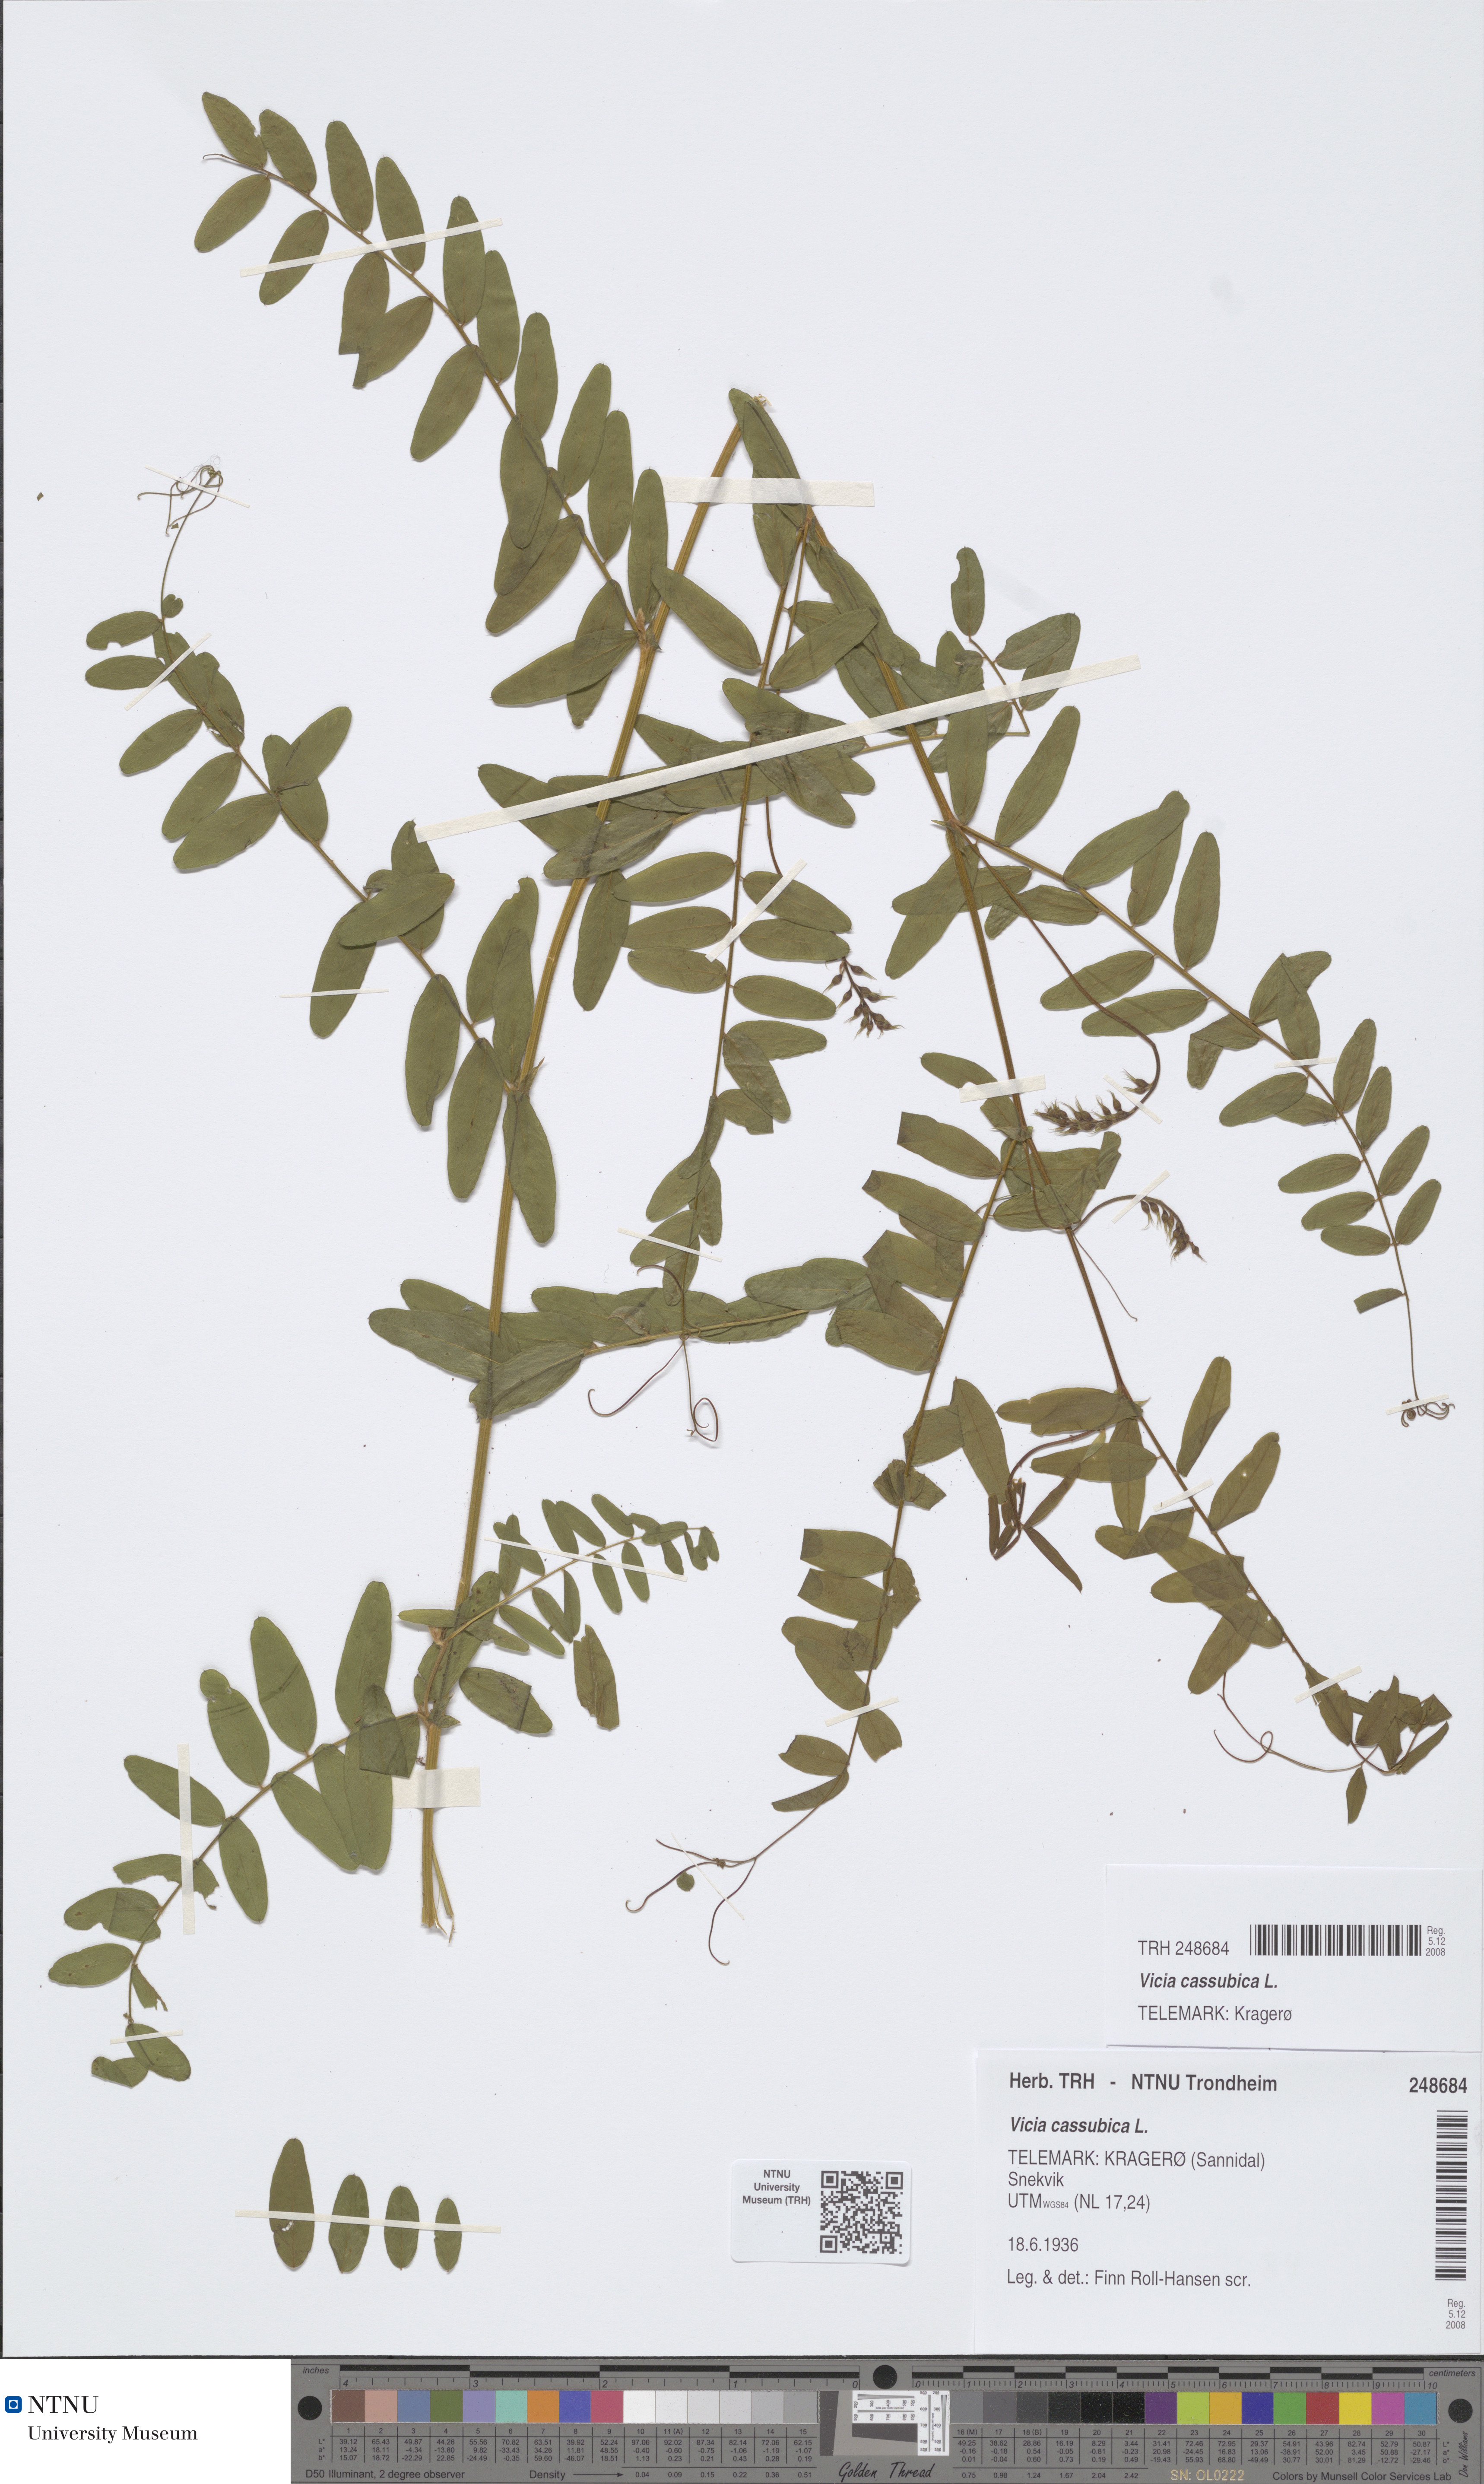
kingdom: Plantae
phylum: Tracheophyta
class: Magnoliopsida
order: Fabales
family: Fabaceae
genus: Vicia
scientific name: Vicia cassubica
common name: Danzig vetch
